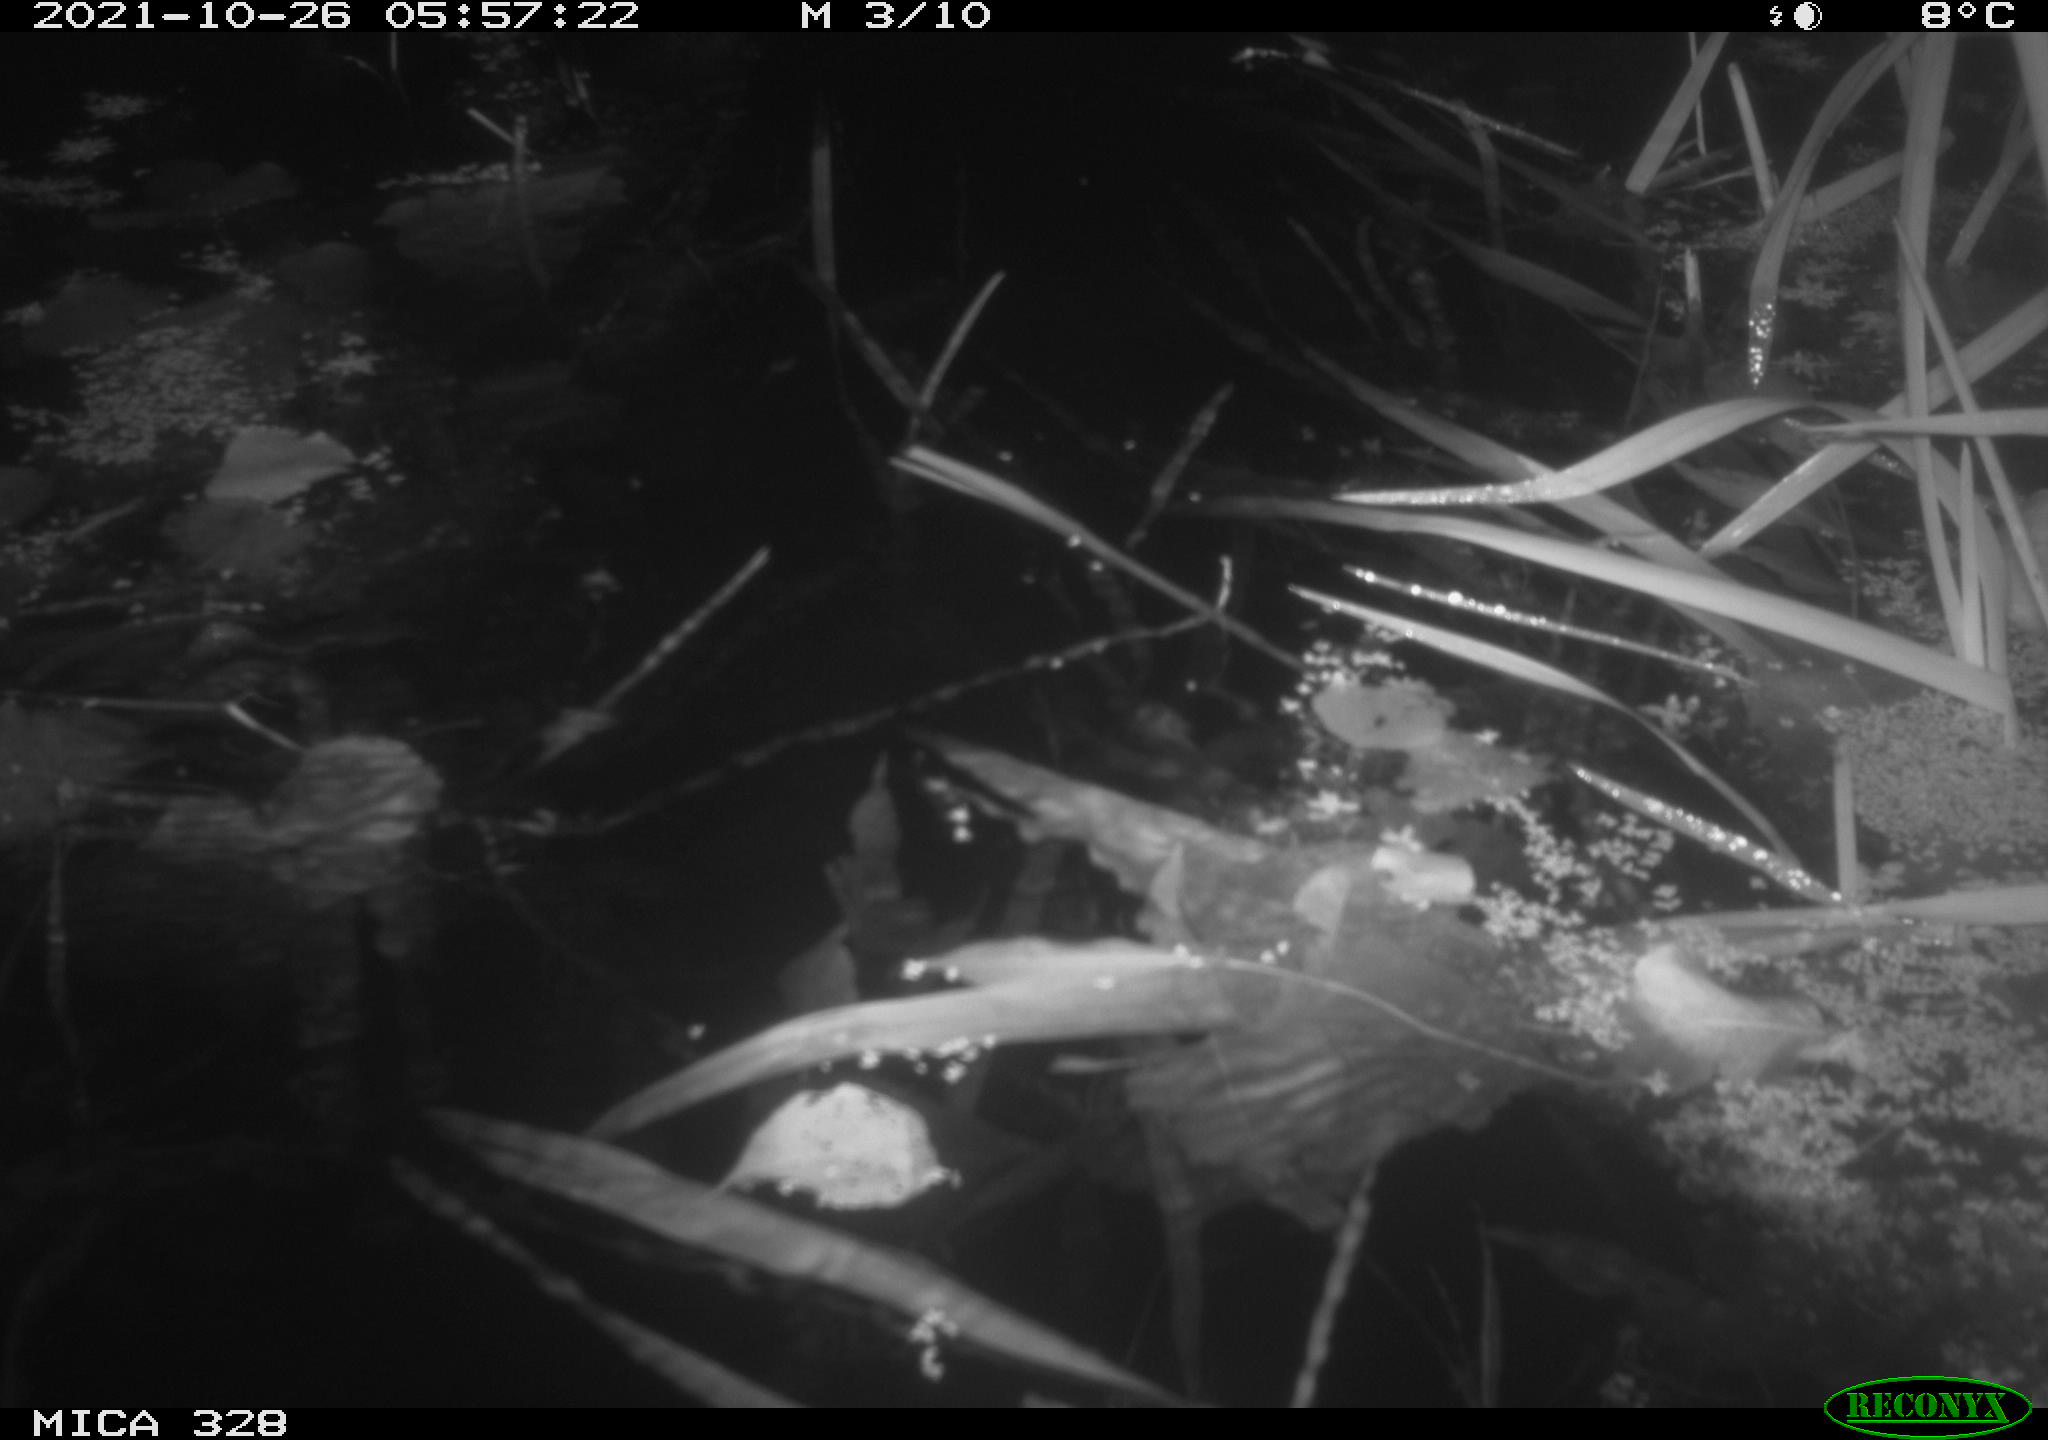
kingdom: Animalia
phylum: Chordata
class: Mammalia
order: Rodentia
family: Cricetidae
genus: Ondatra
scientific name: Ondatra zibethicus
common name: Muskrat
